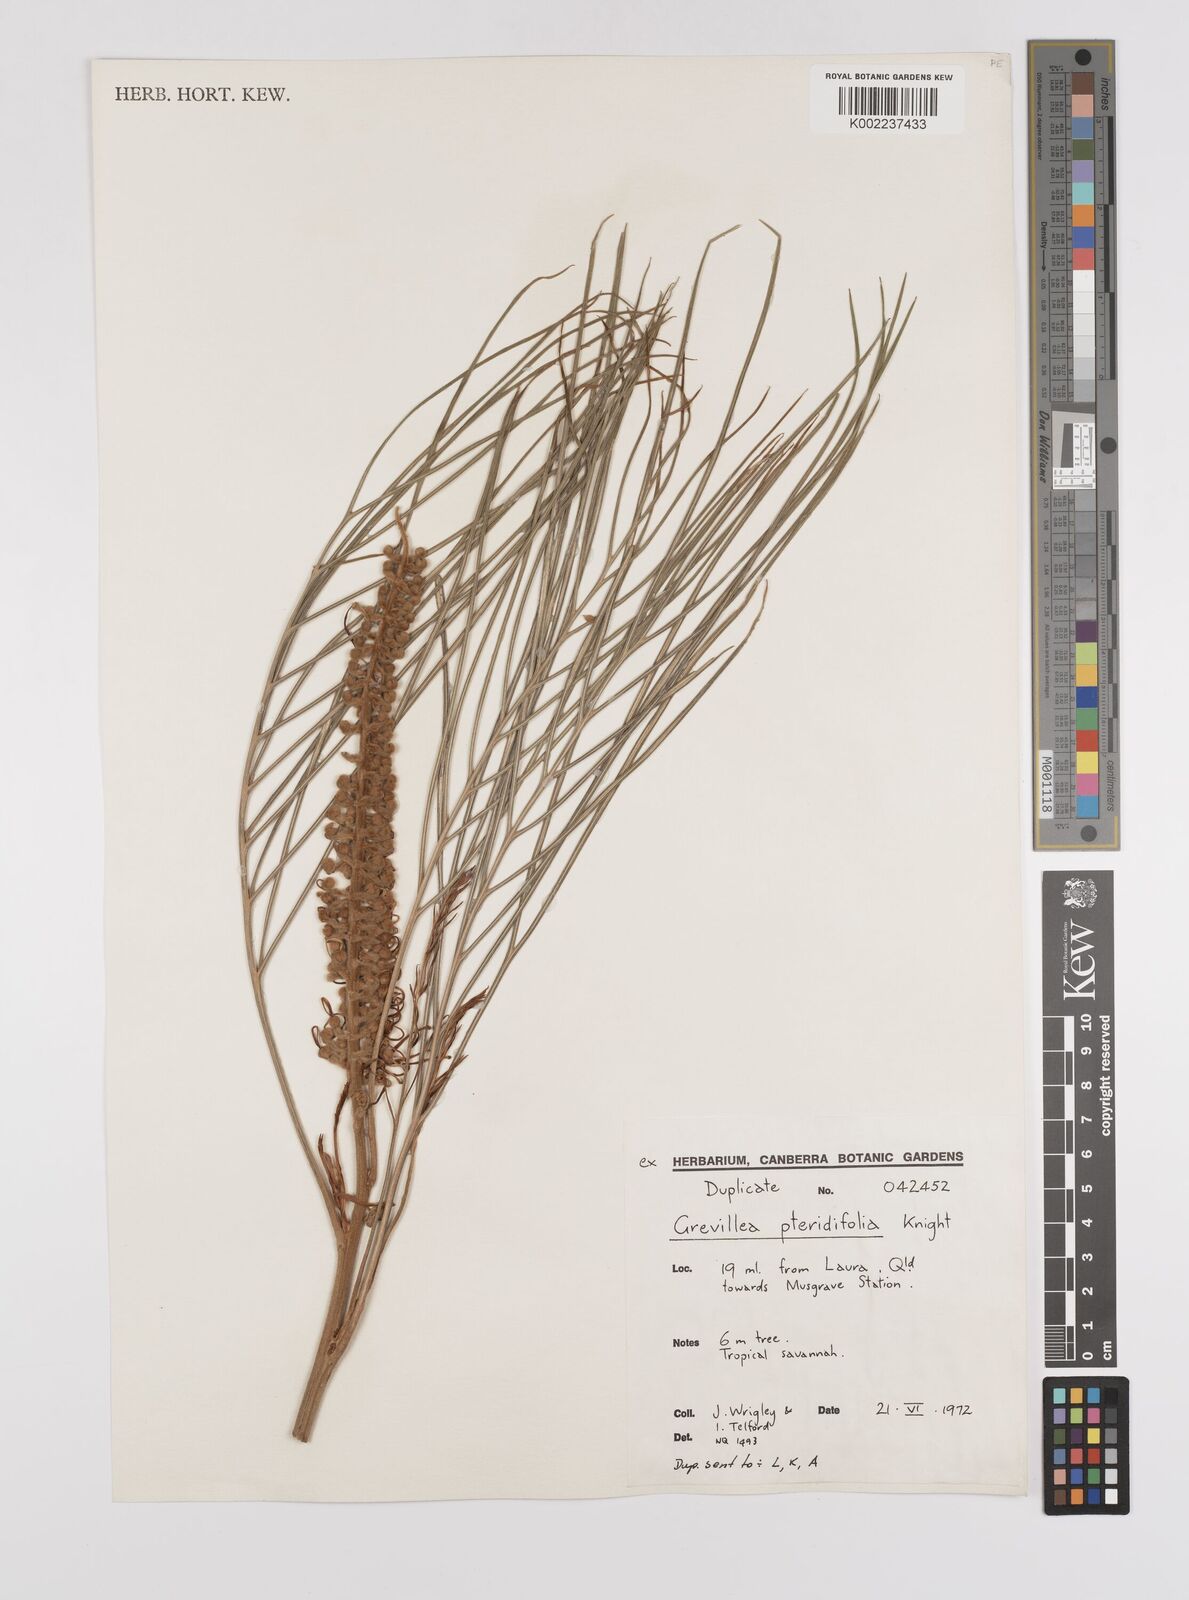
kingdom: Plantae
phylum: Tracheophyta
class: Magnoliopsida
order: Proteales
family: Proteaceae
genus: Grevillea
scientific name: Grevillea pteridifolia
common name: Golden grevillea
